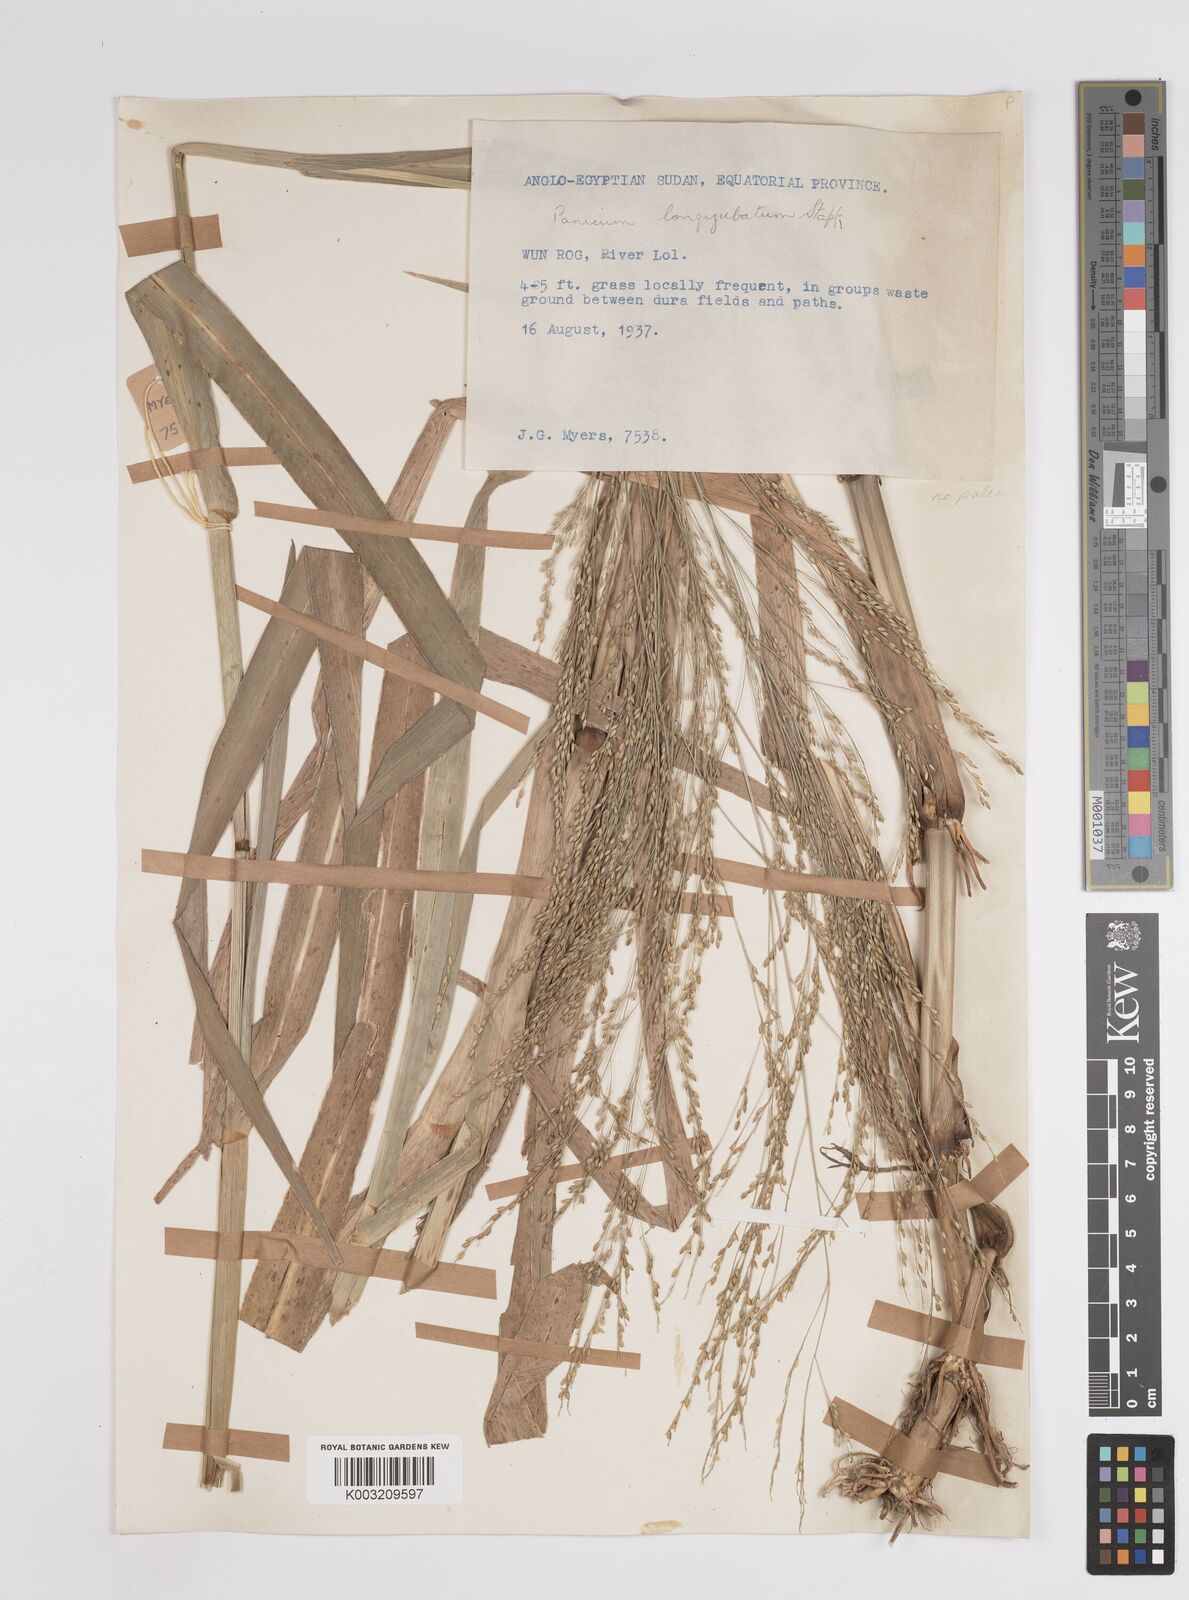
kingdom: Plantae
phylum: Tracheophyta
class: Liliopsida
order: Poales
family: Poaceae
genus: Panicum
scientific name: Panicum subalbidum
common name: Elbow buffalo grass
